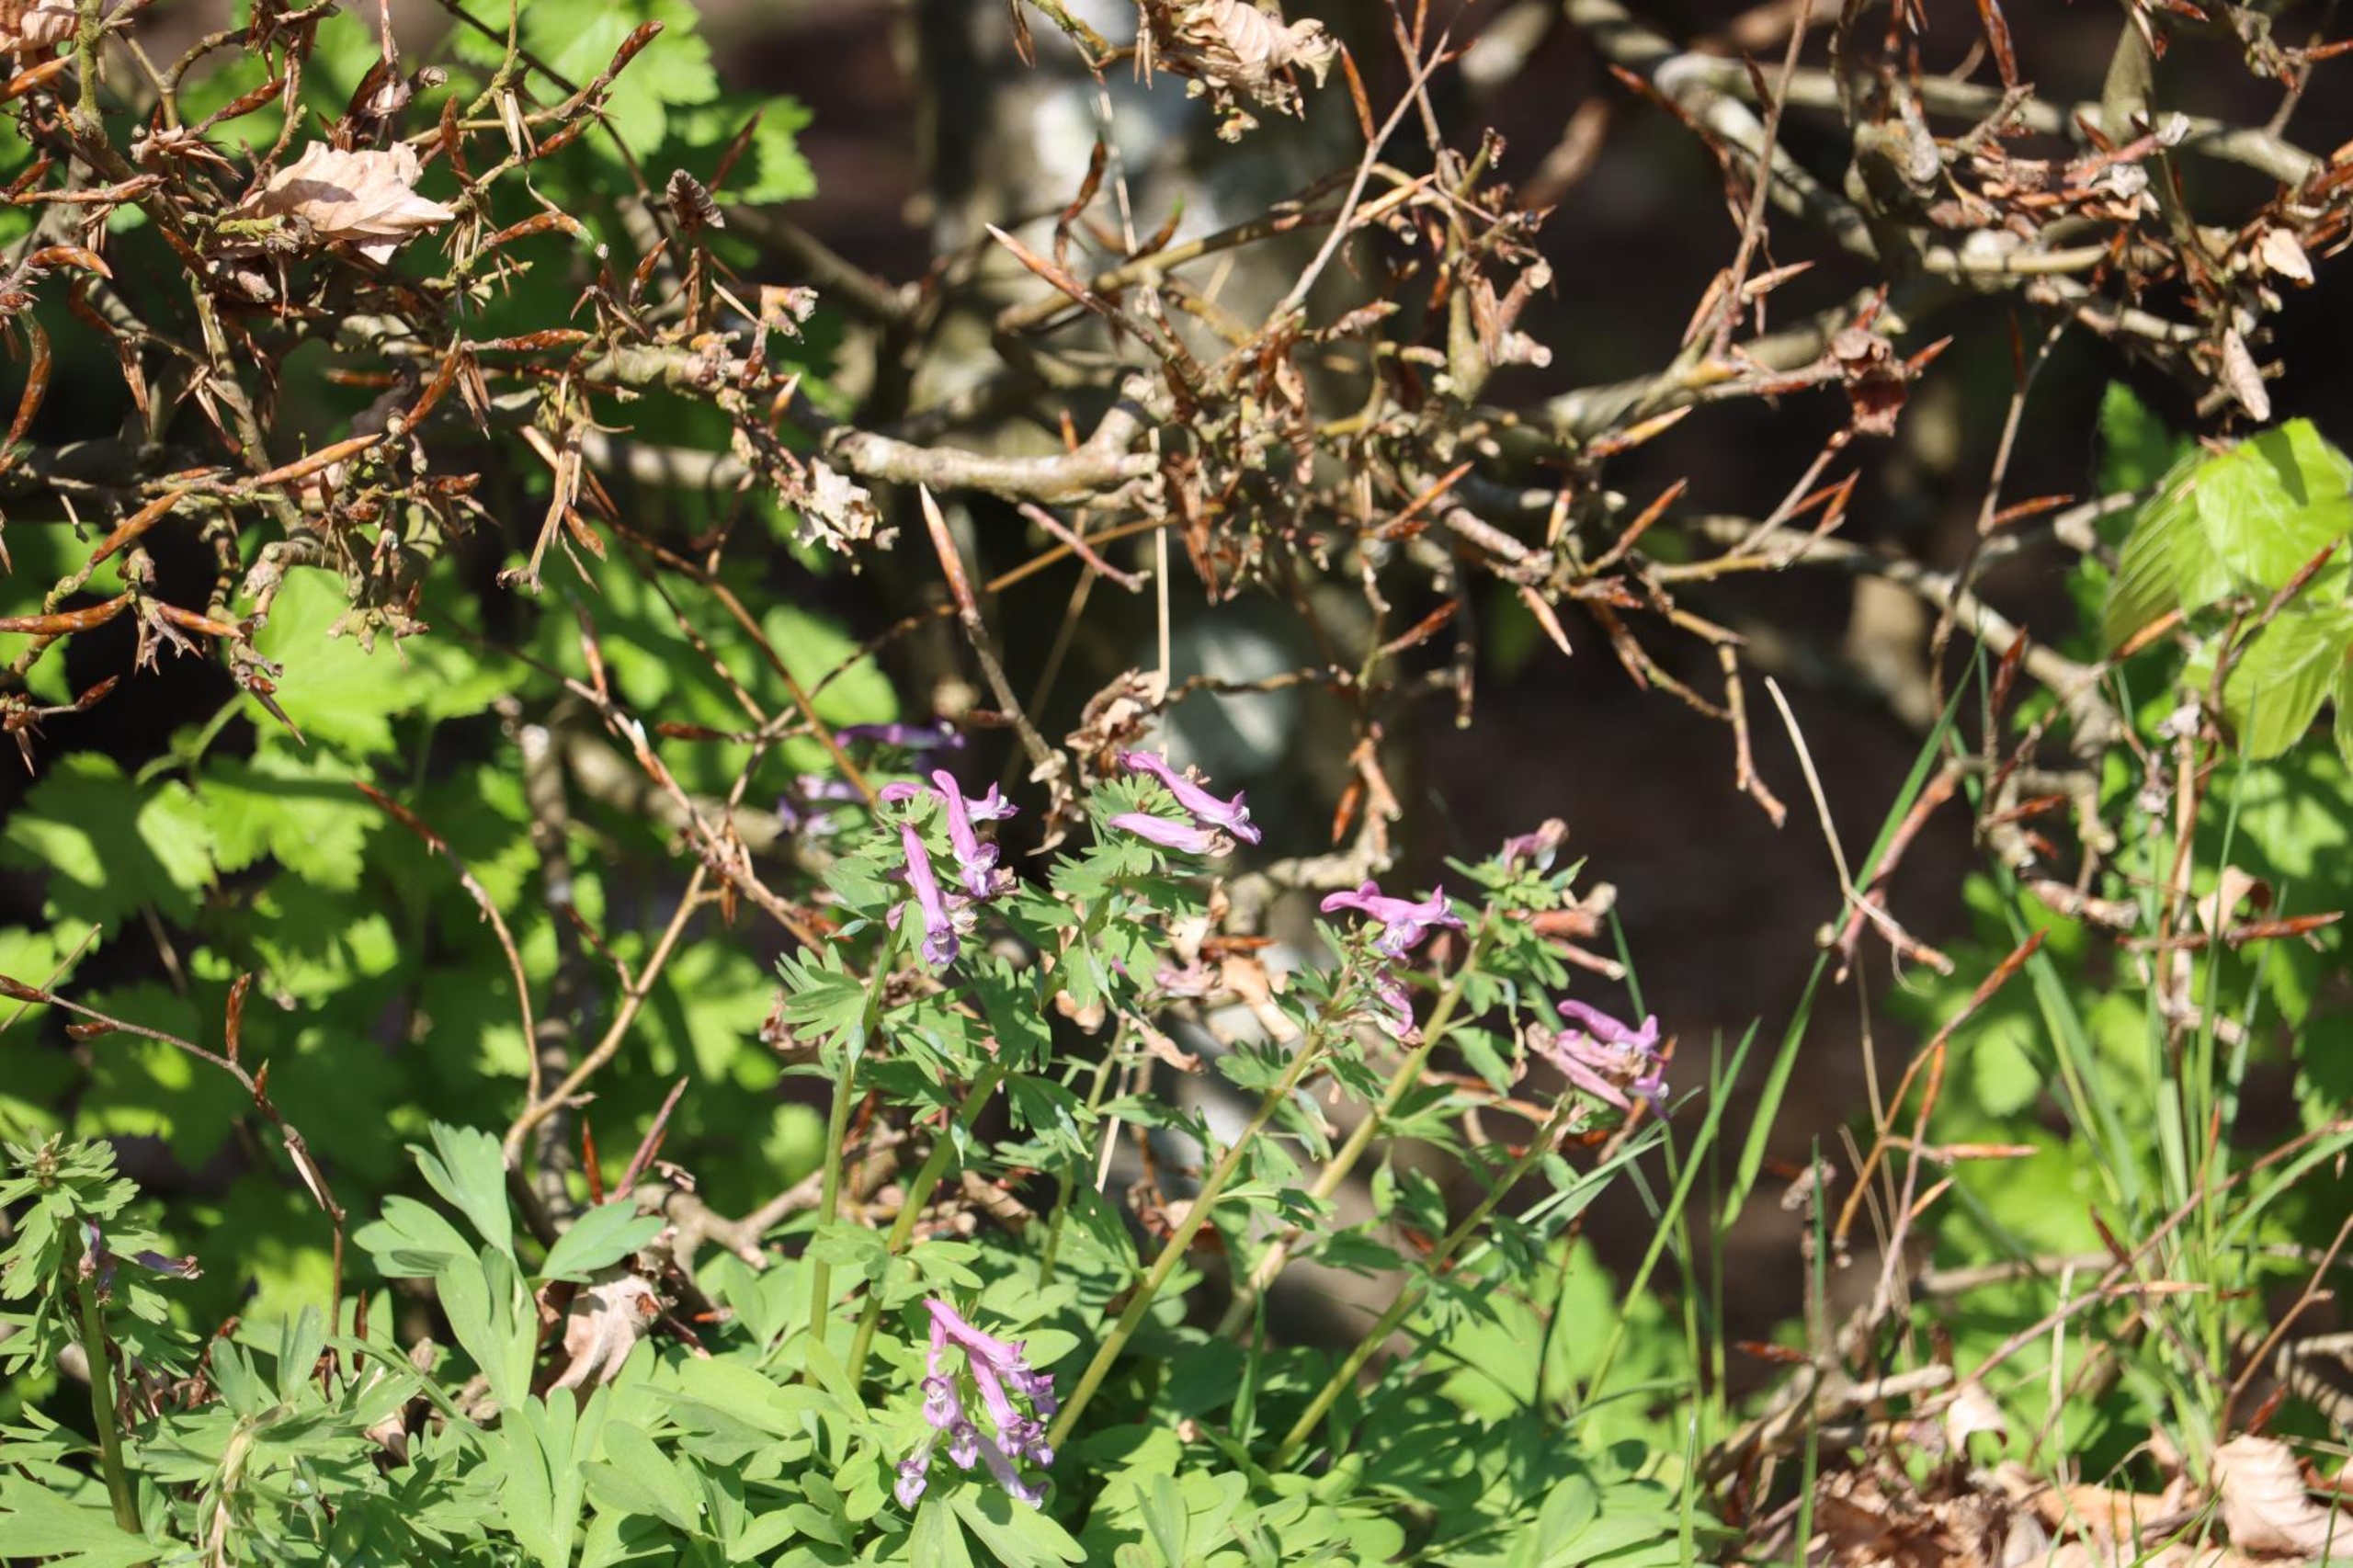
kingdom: Plantae
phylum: Tracheophyta
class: Magnoliopsida
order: Ranunculales
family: Papaveraceae
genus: Corydalis
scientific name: Corydalis solida
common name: Langstilket lærkespore
